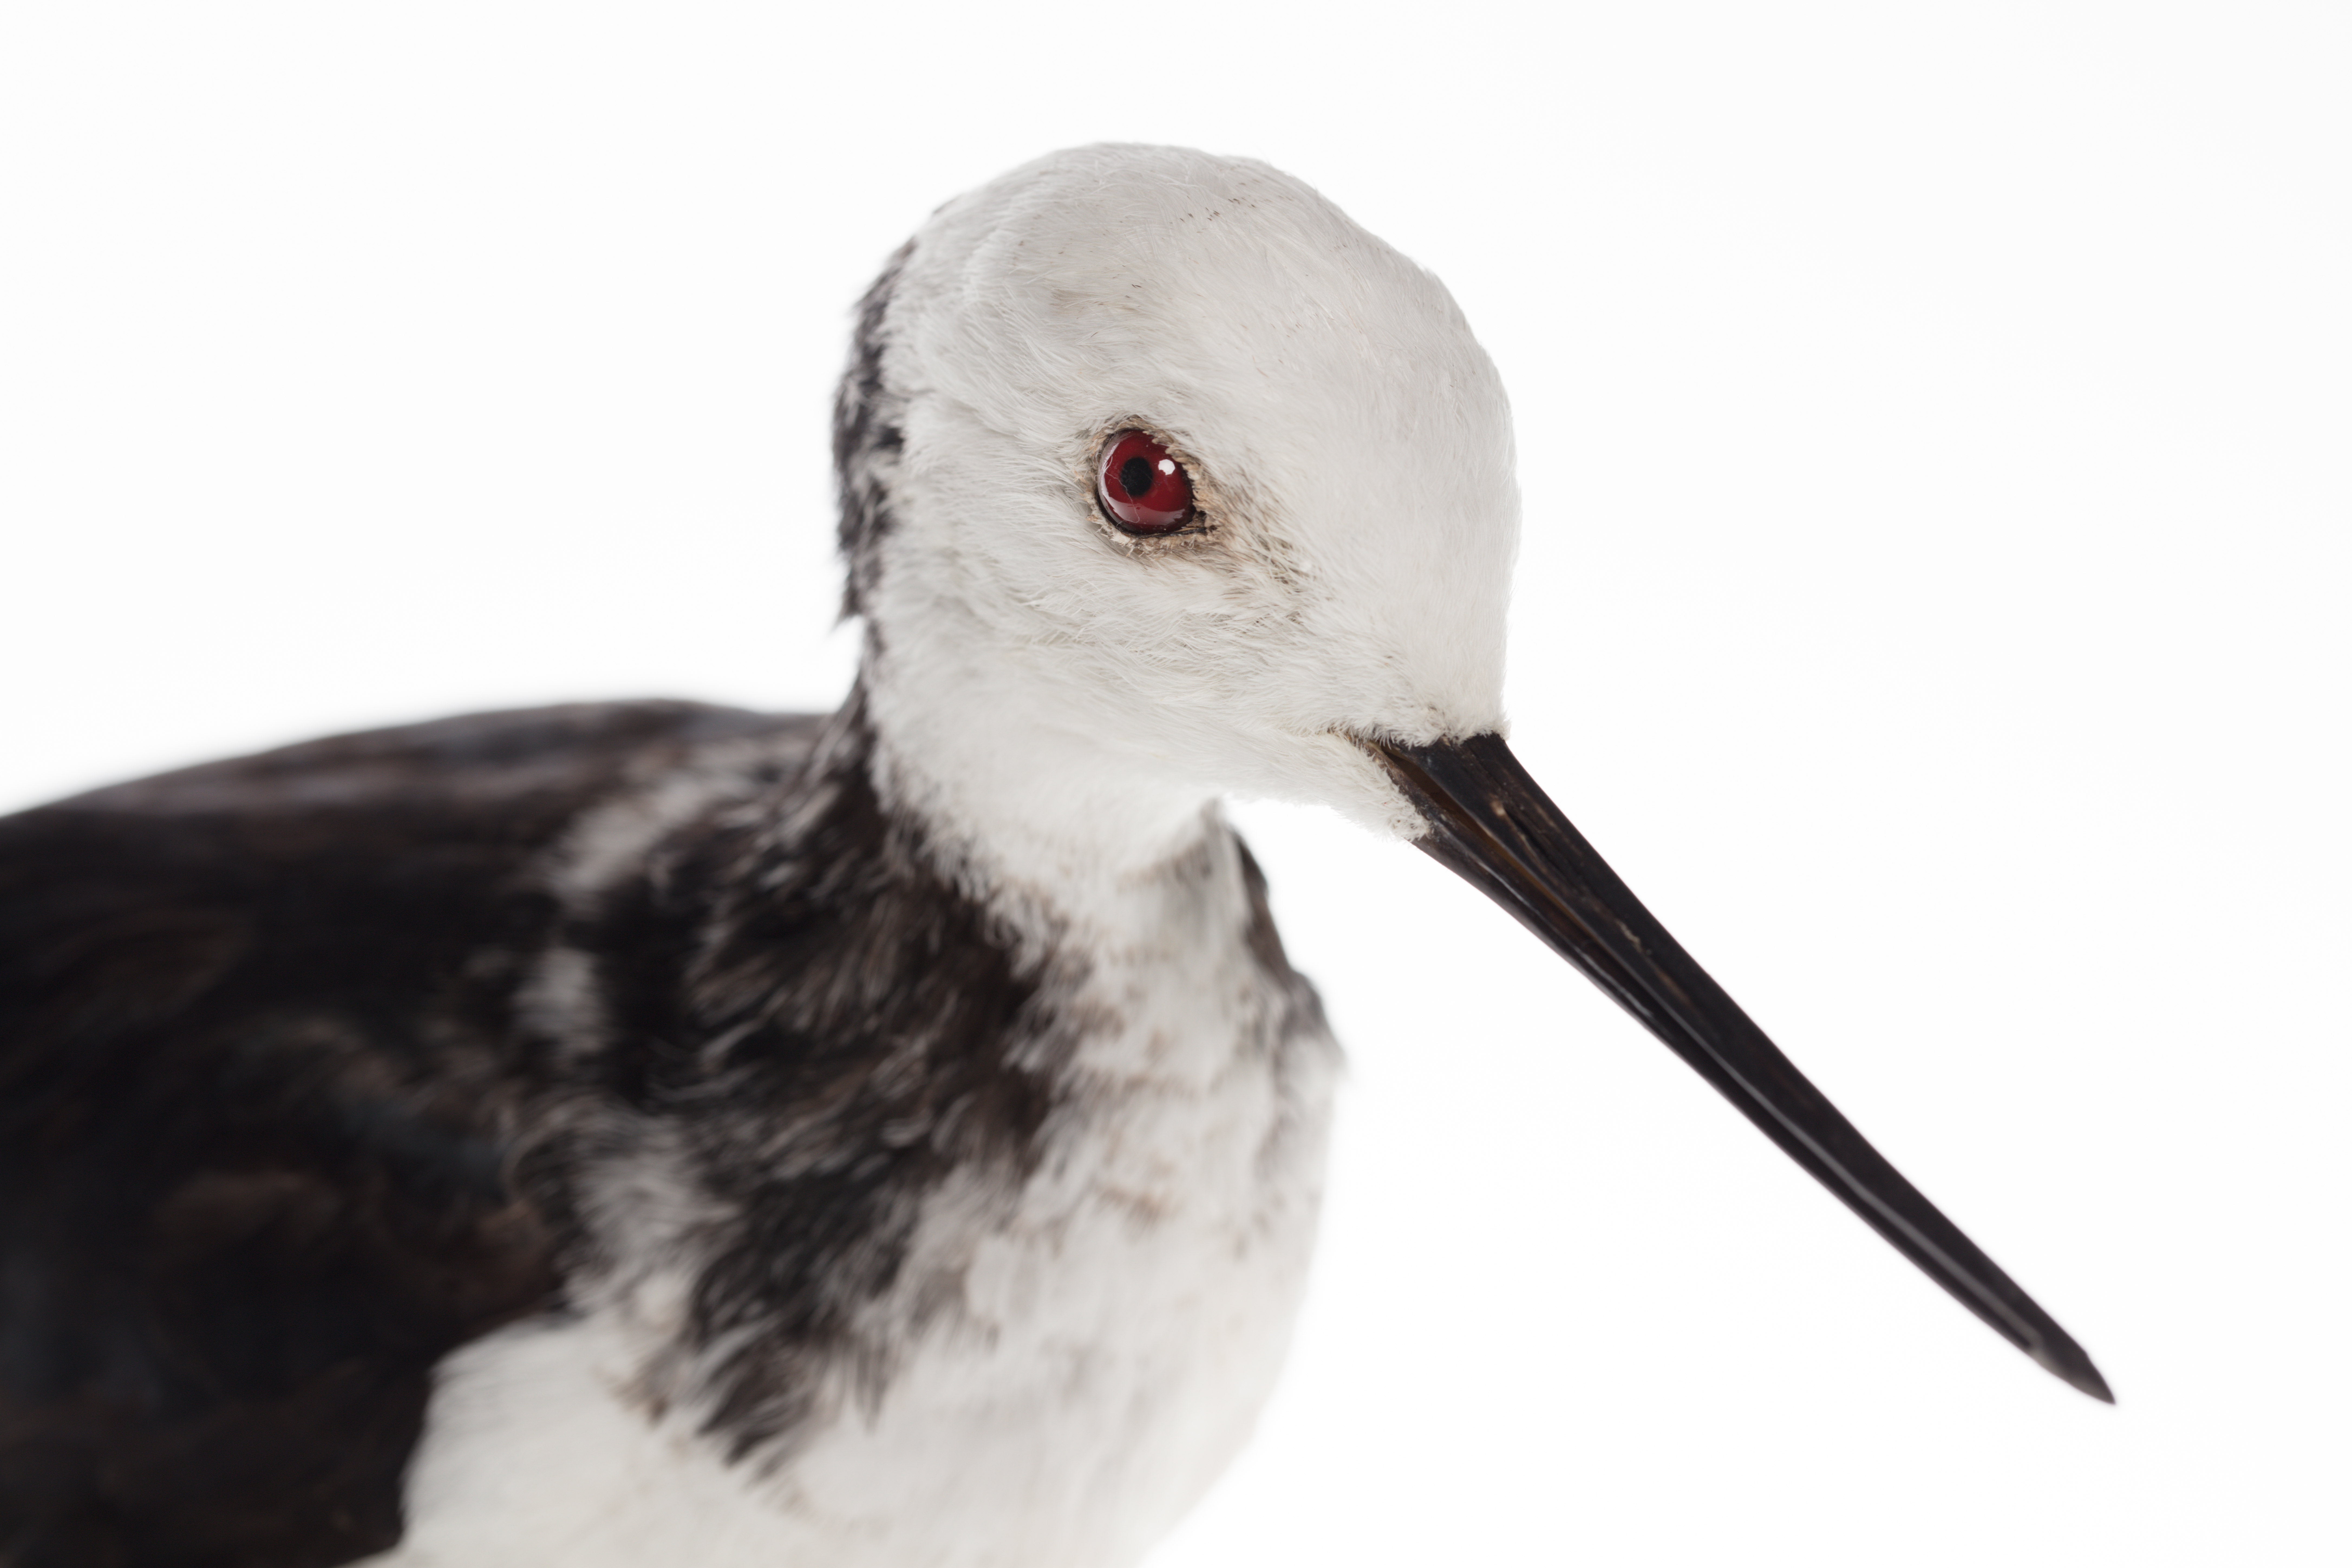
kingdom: Animalia
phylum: Chordata
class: Aves
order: Charadriiformes
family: Recurvirostridae
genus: Himantopus
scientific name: Himantopus himantopus
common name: Black-winged stilt
